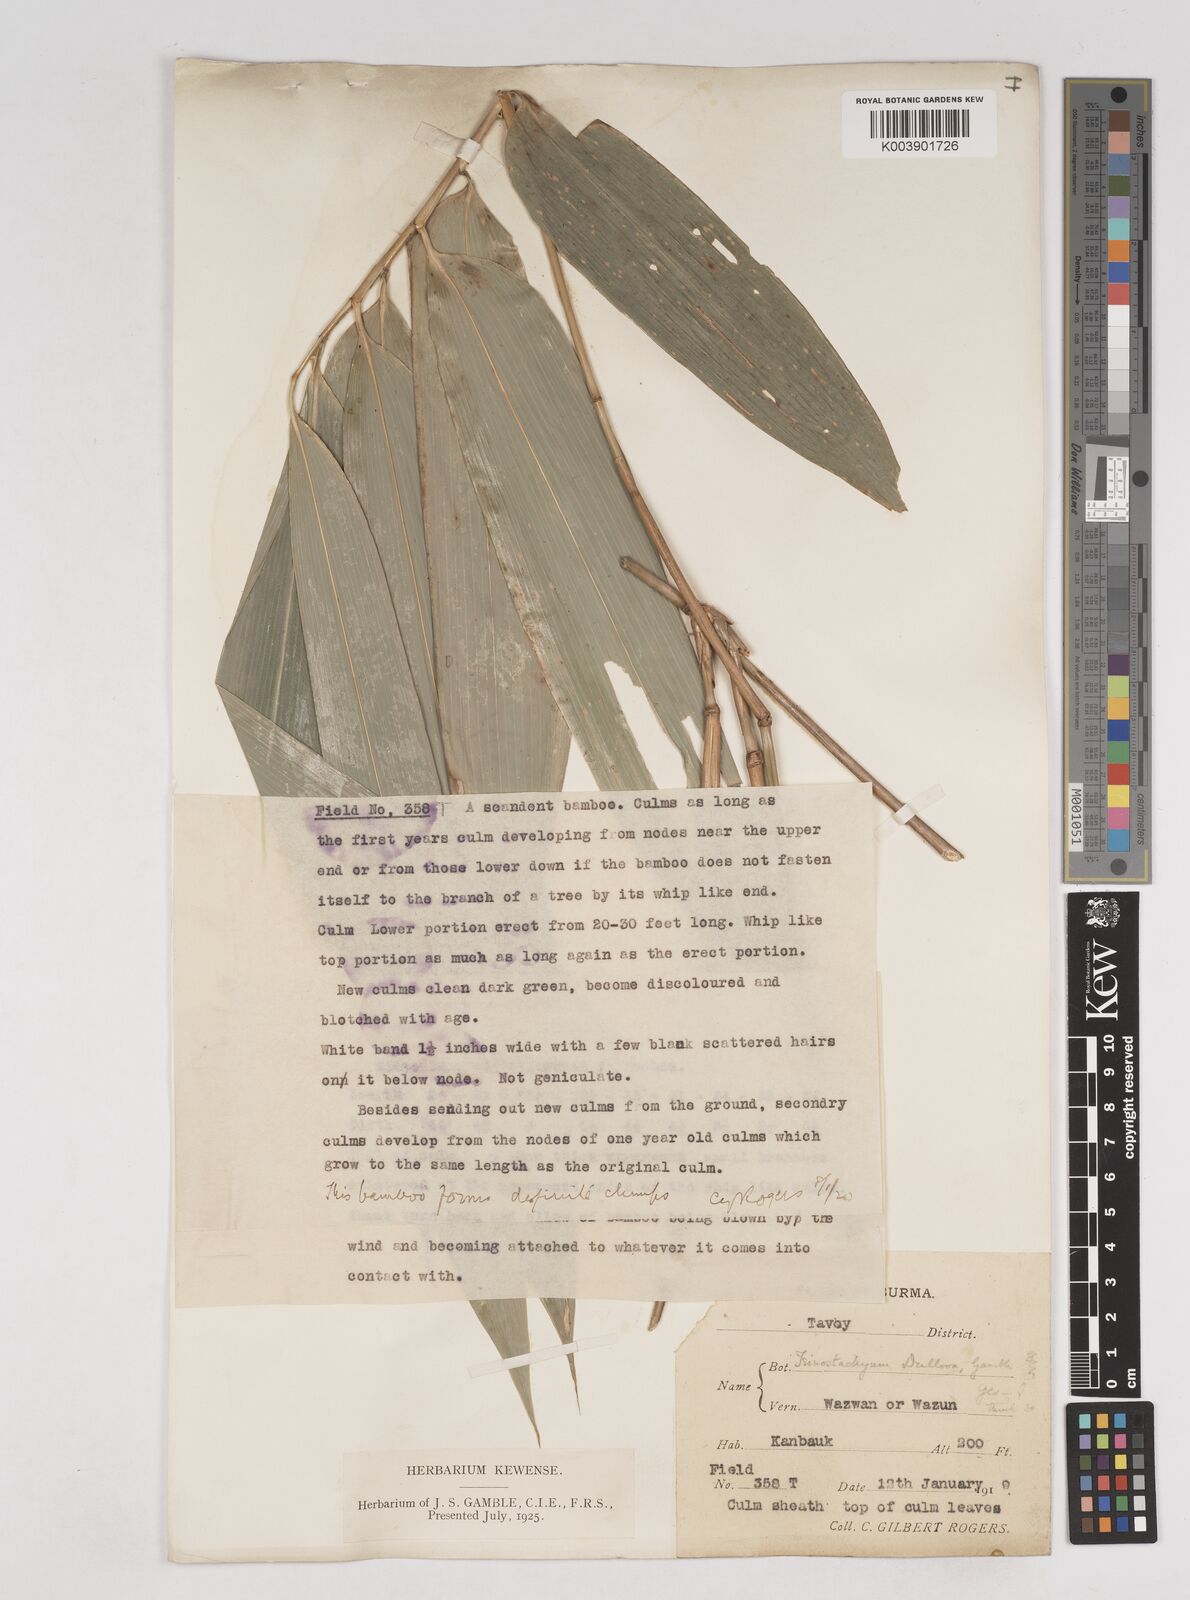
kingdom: Plantae
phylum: Tracheophyta
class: Liliopsida
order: Poales
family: Poaceae
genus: Schizostachyum
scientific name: Schizostachyum dullooa
